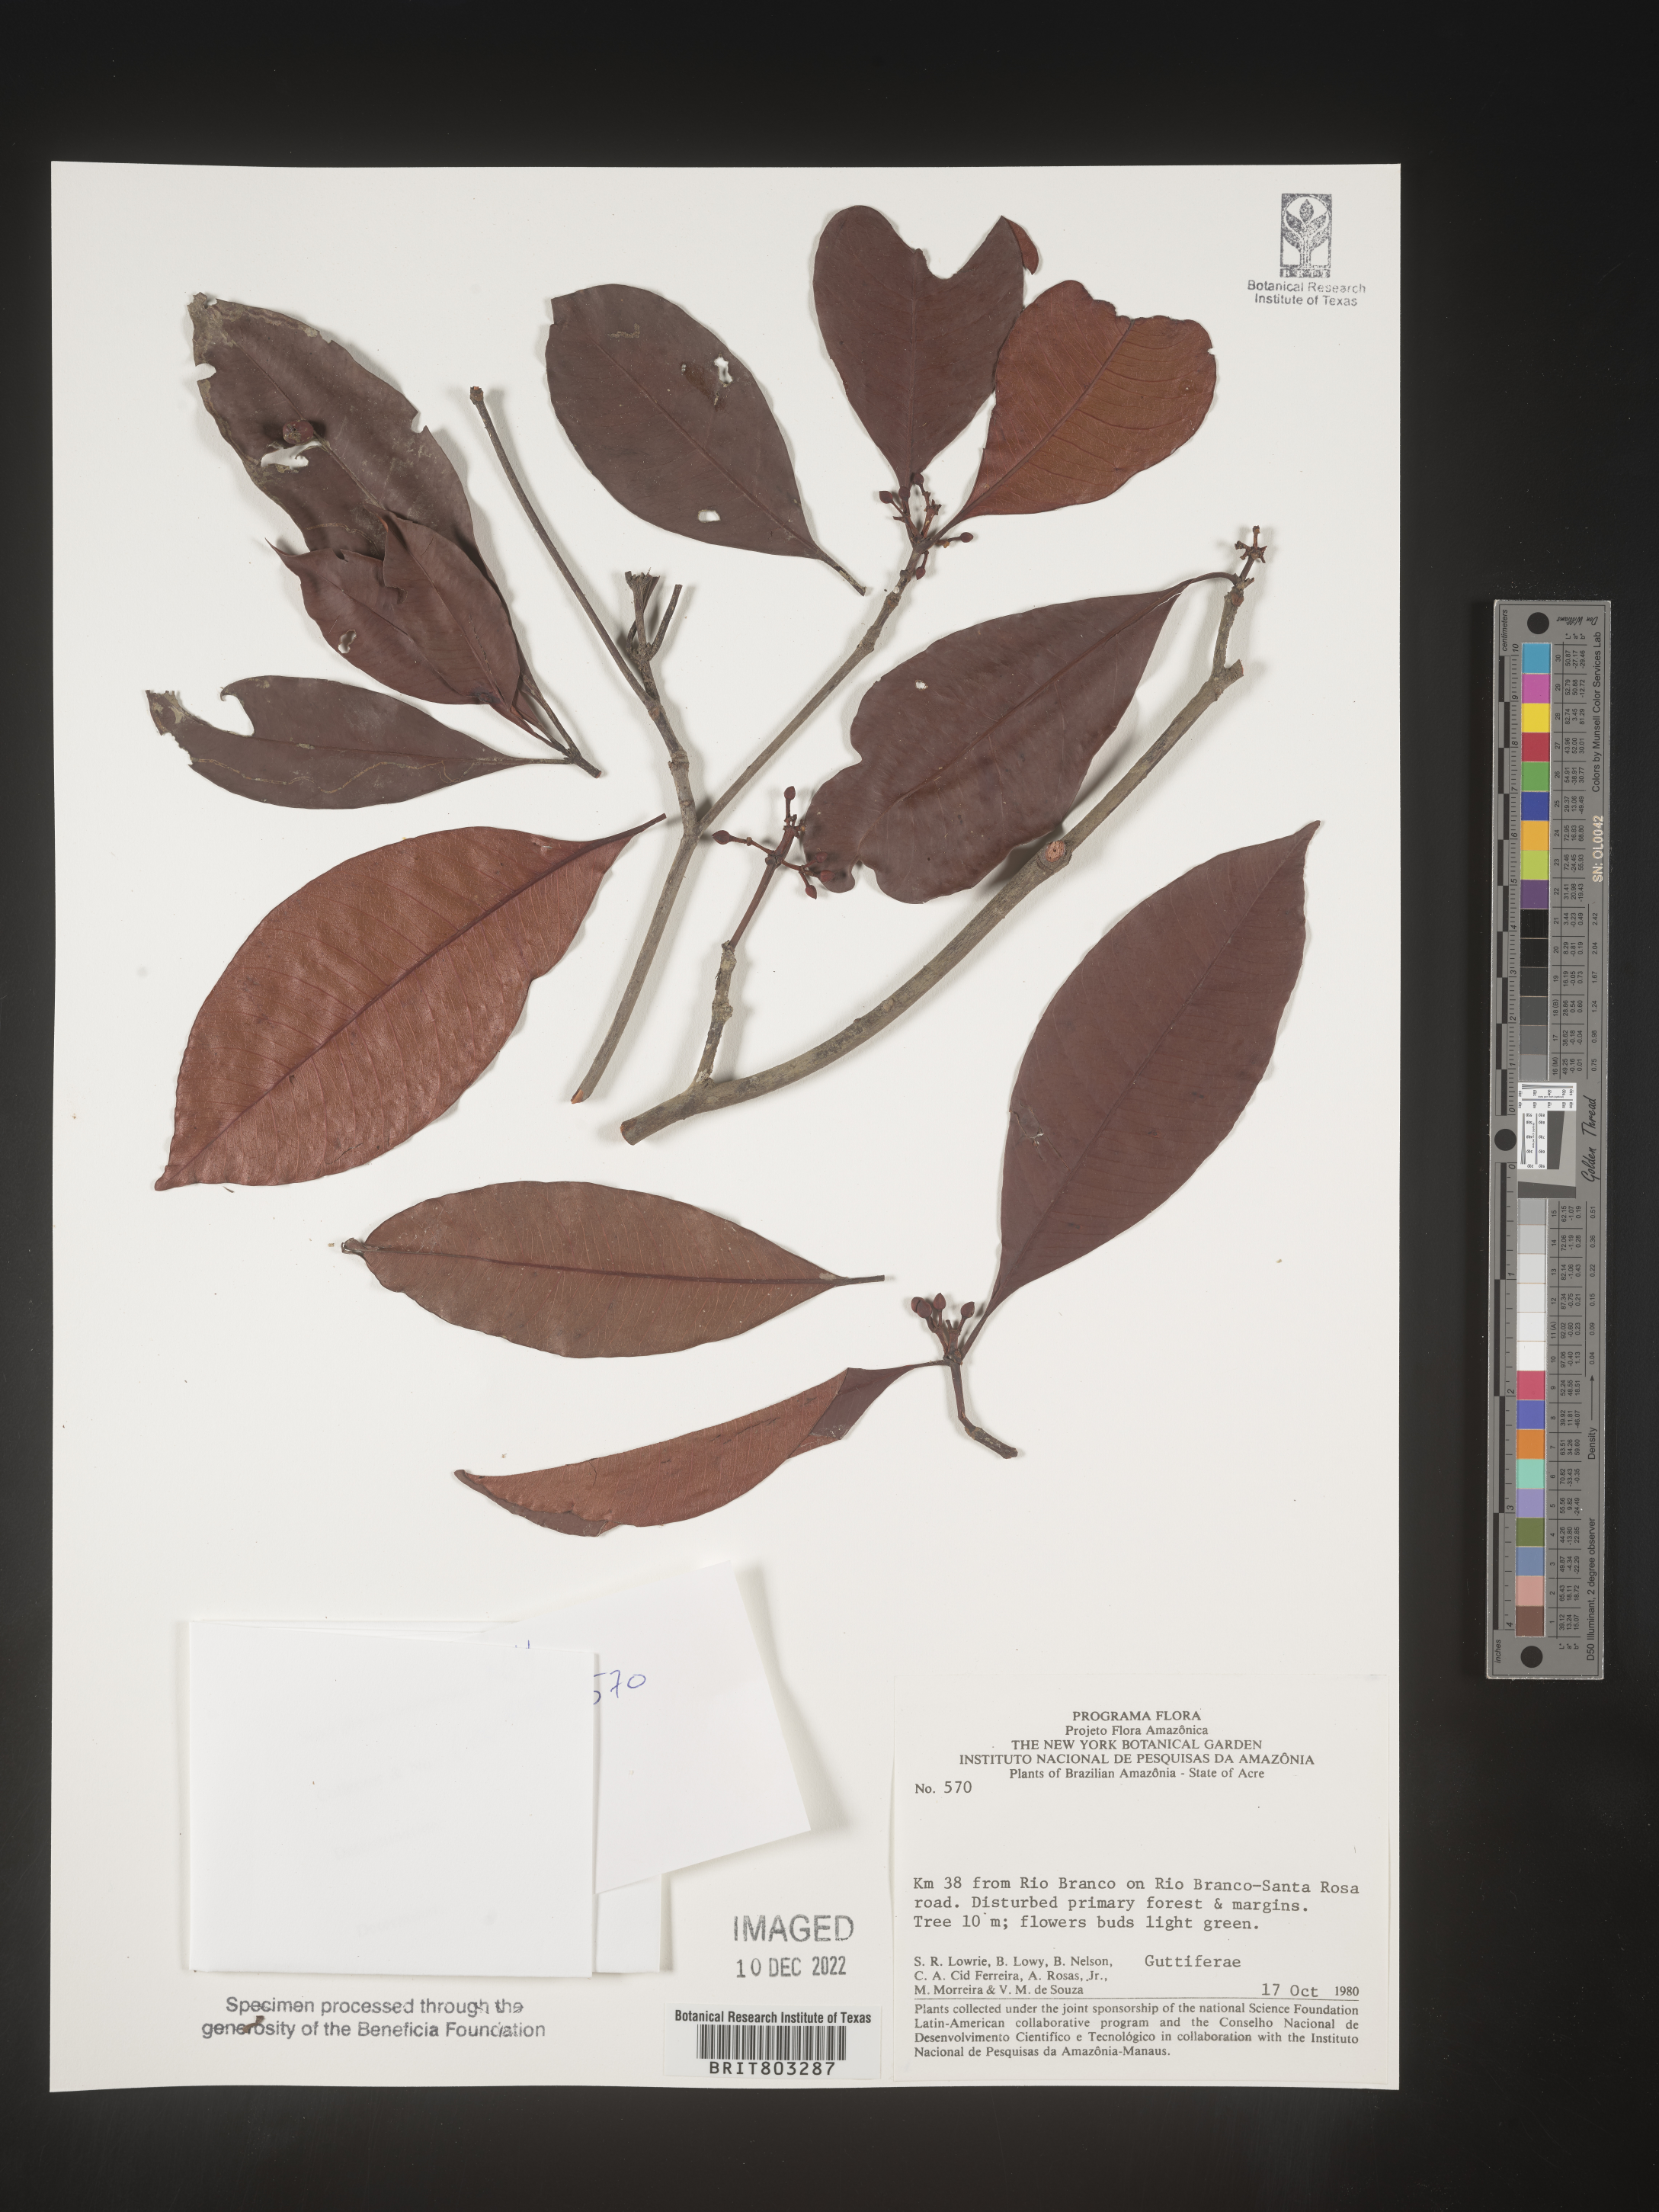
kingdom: Plantae
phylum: Tracheophyta
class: Magnoliopsida
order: Malpighiales
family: Clusiaceae
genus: Tovomita
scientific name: Tovomita
